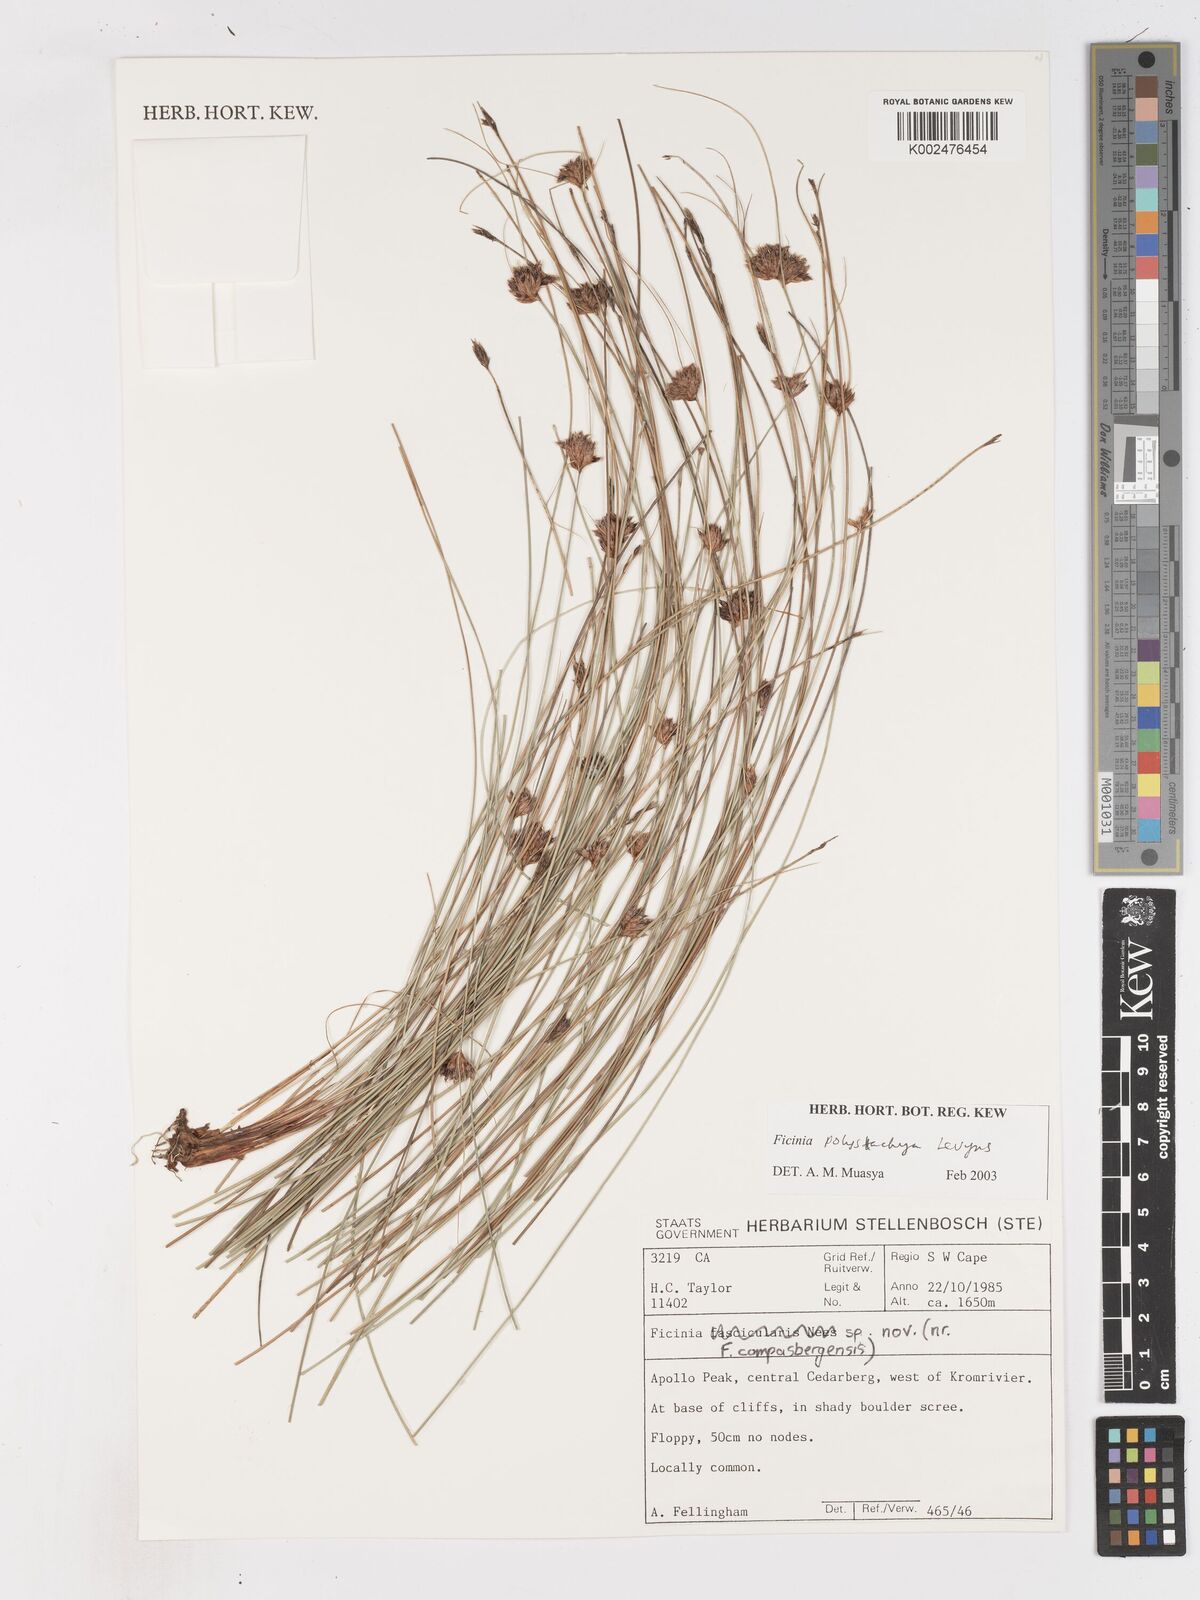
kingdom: Plantae
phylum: Tracheophyta
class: Liliopsida
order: Poales
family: Cyperaceae
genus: Ficinia
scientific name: Ficinia polystachya
